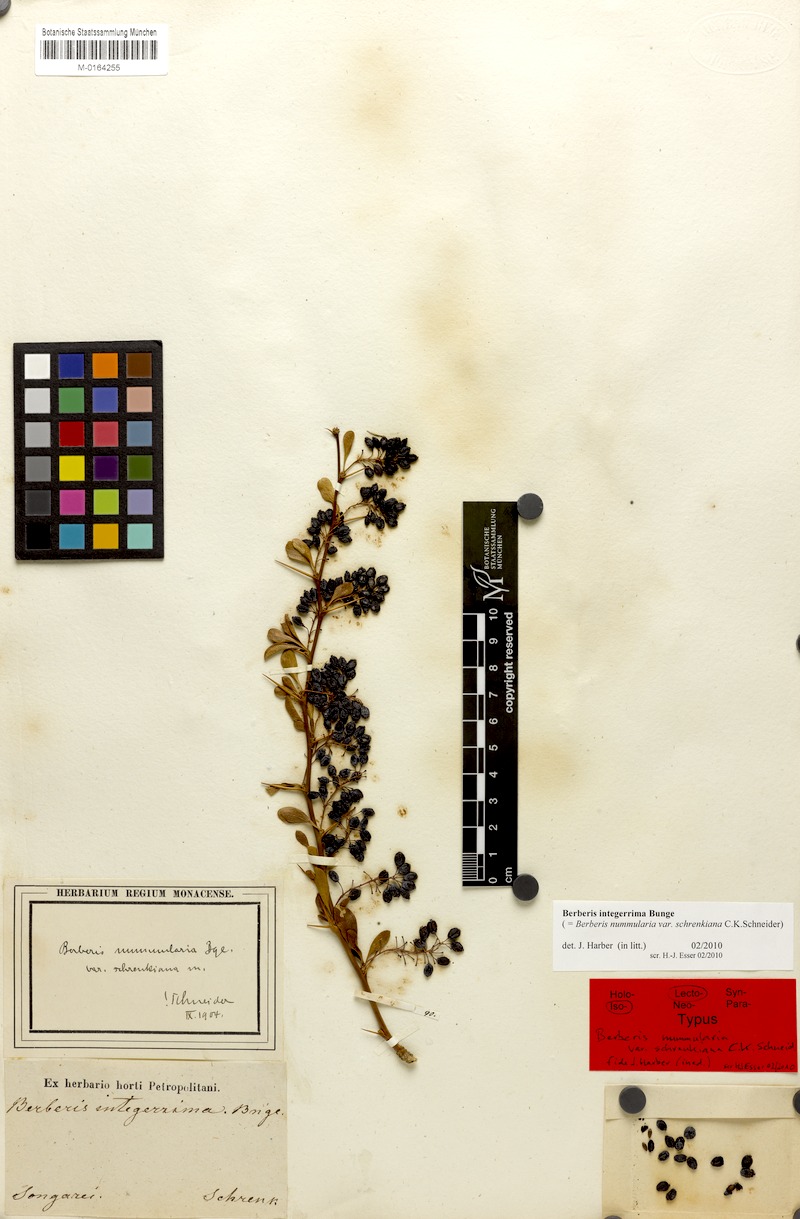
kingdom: Plantae
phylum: Tracheophyta
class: Magnoliopsida
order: Ranunculales
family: Berberidaceae
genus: Berberis
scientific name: Berberis integerrima
